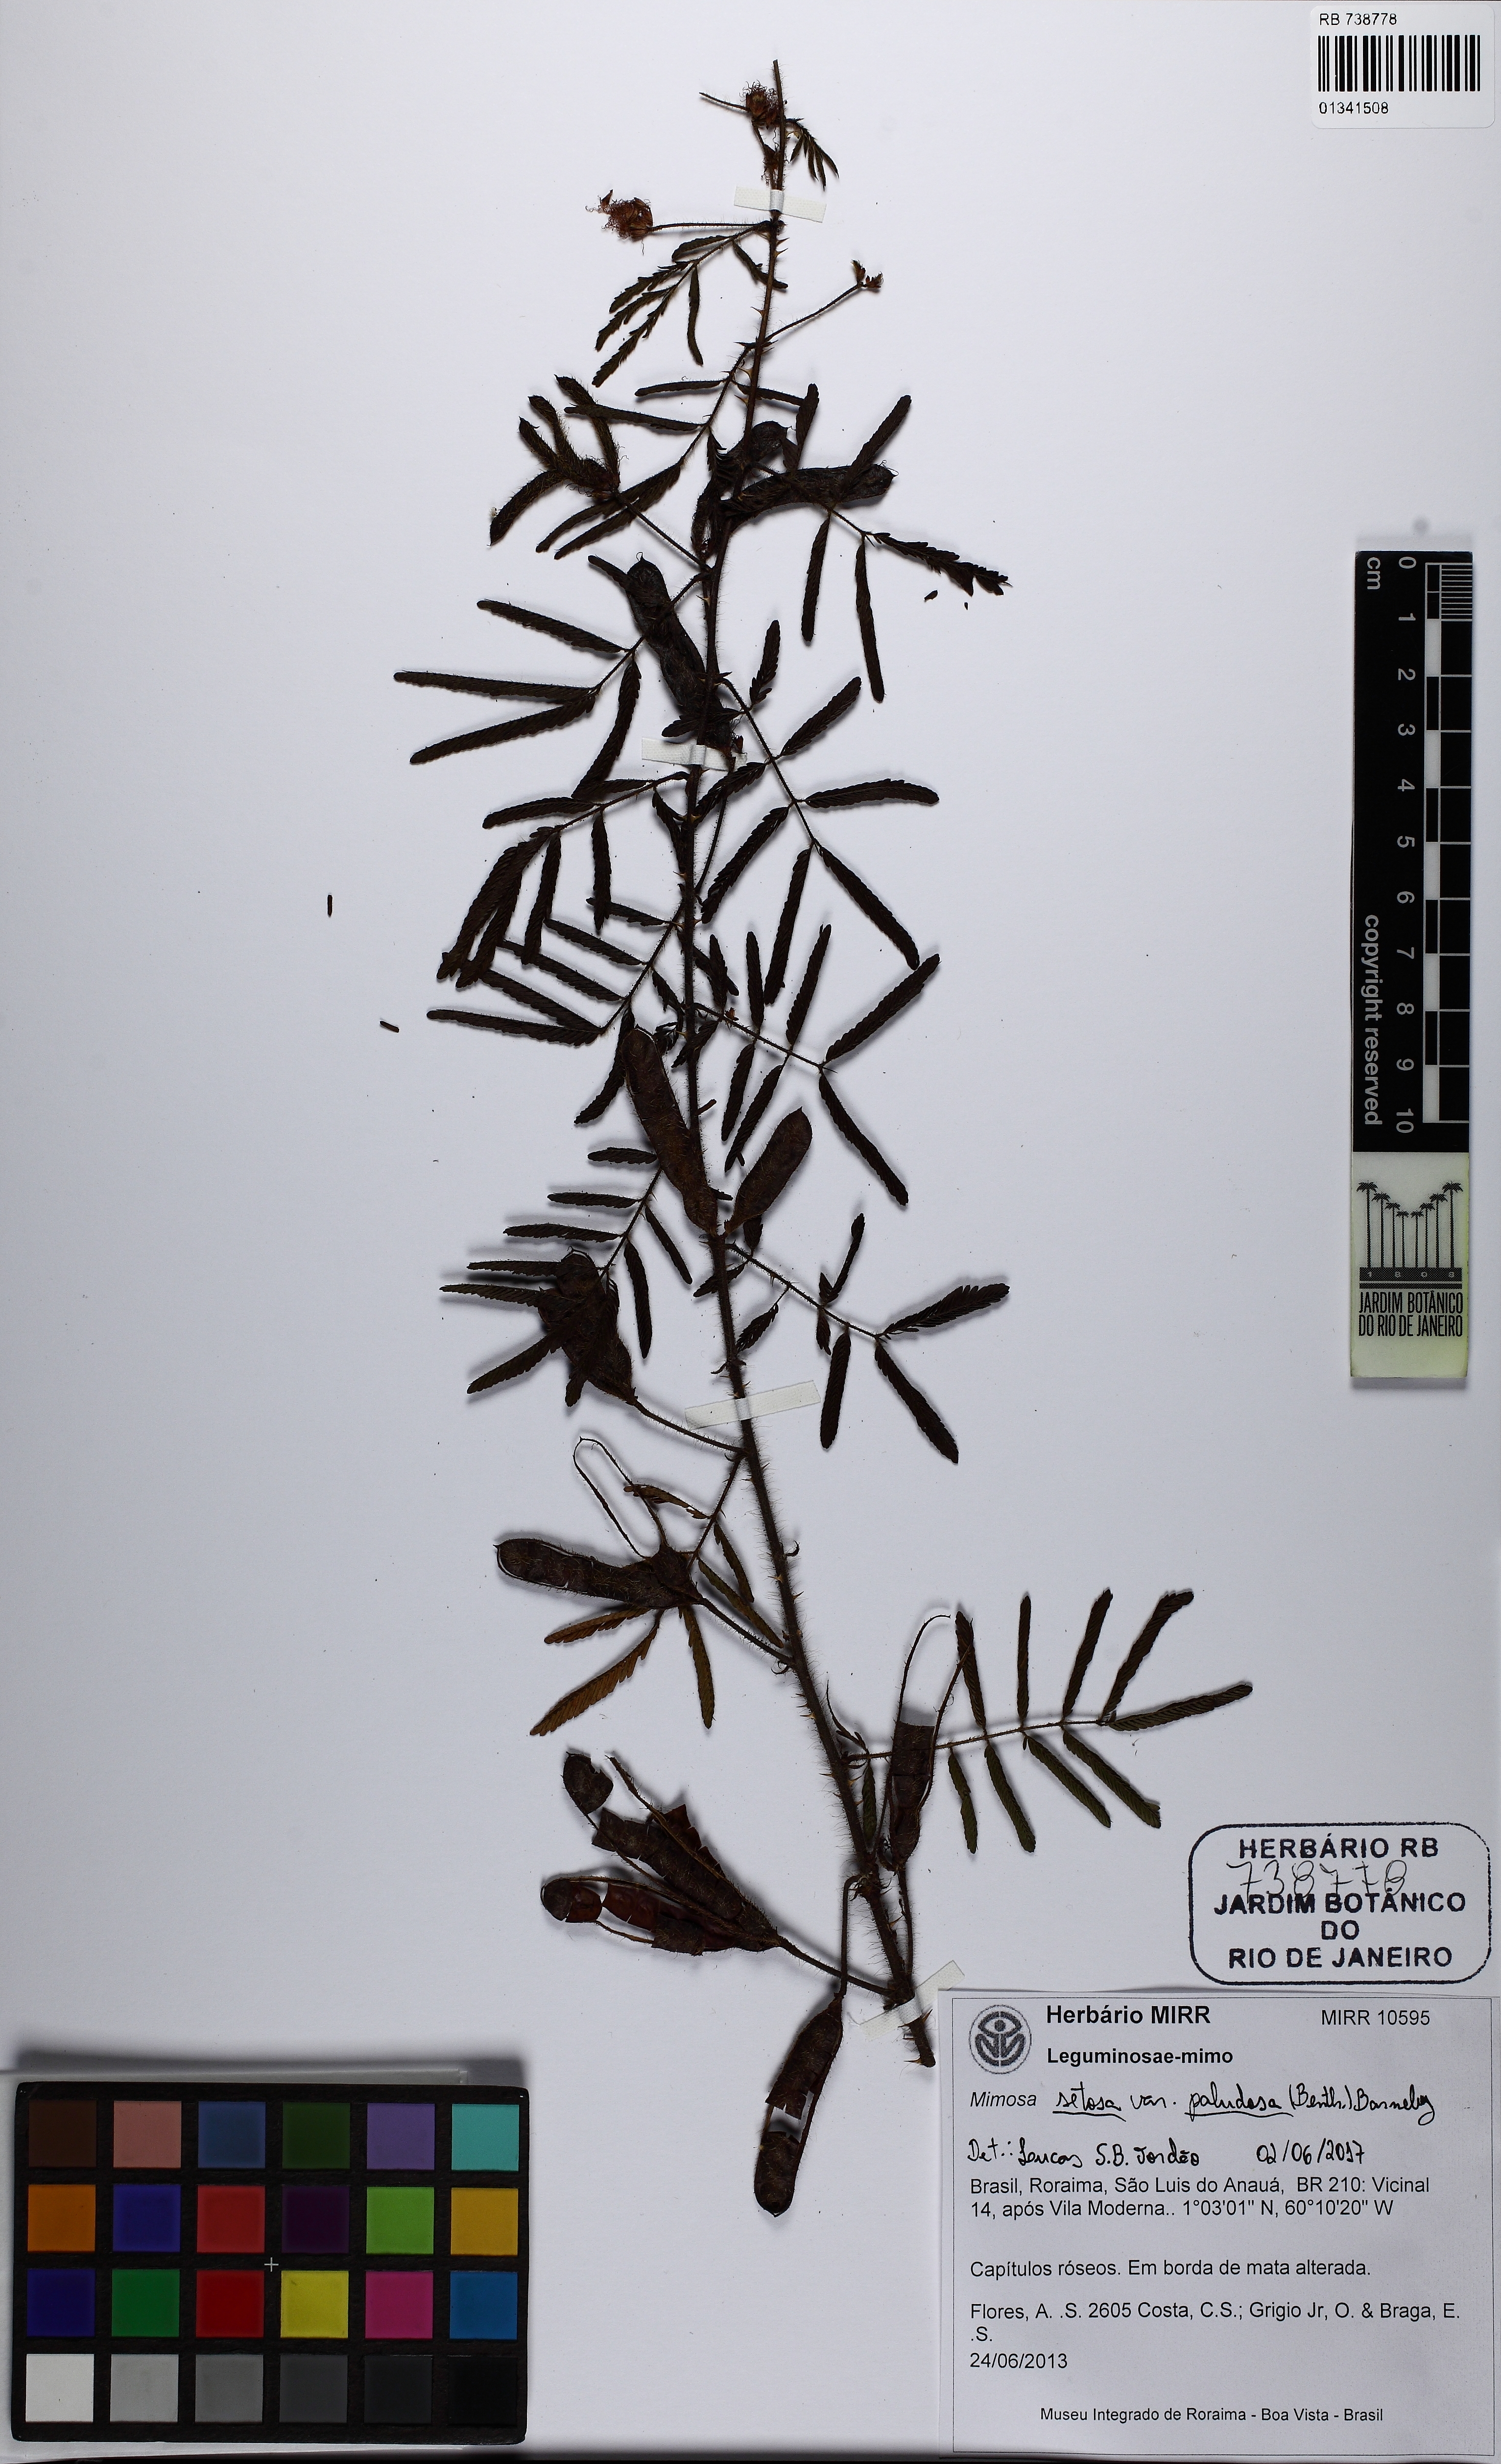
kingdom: Plantae
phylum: Tracheophyta
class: Magnoliopsida
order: Fabales
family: Fabaceae
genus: Mimosa
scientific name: Mimosa paludosa
